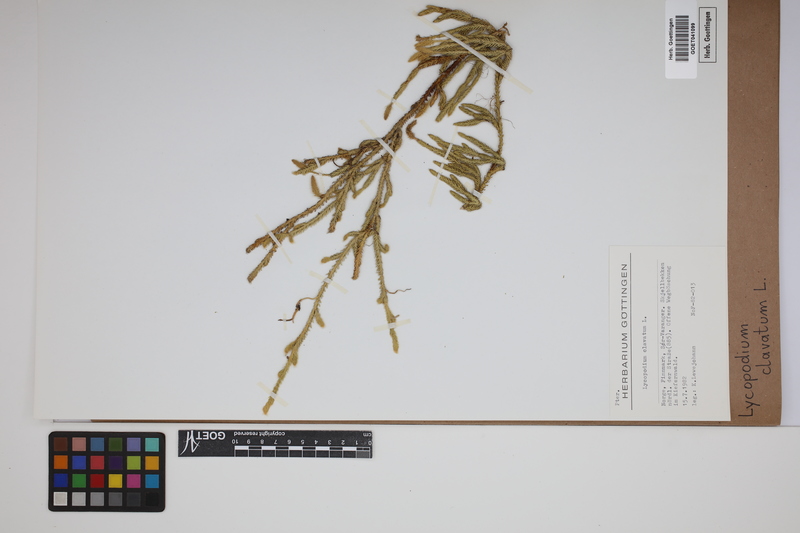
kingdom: Plantae
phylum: Tracheophyta
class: Lycopodiopsida
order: Lycopodiales
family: Lycopodiaceae
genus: Lycopodium
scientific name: Lycopodium clavatum
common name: Stag's-horn clubmoss
